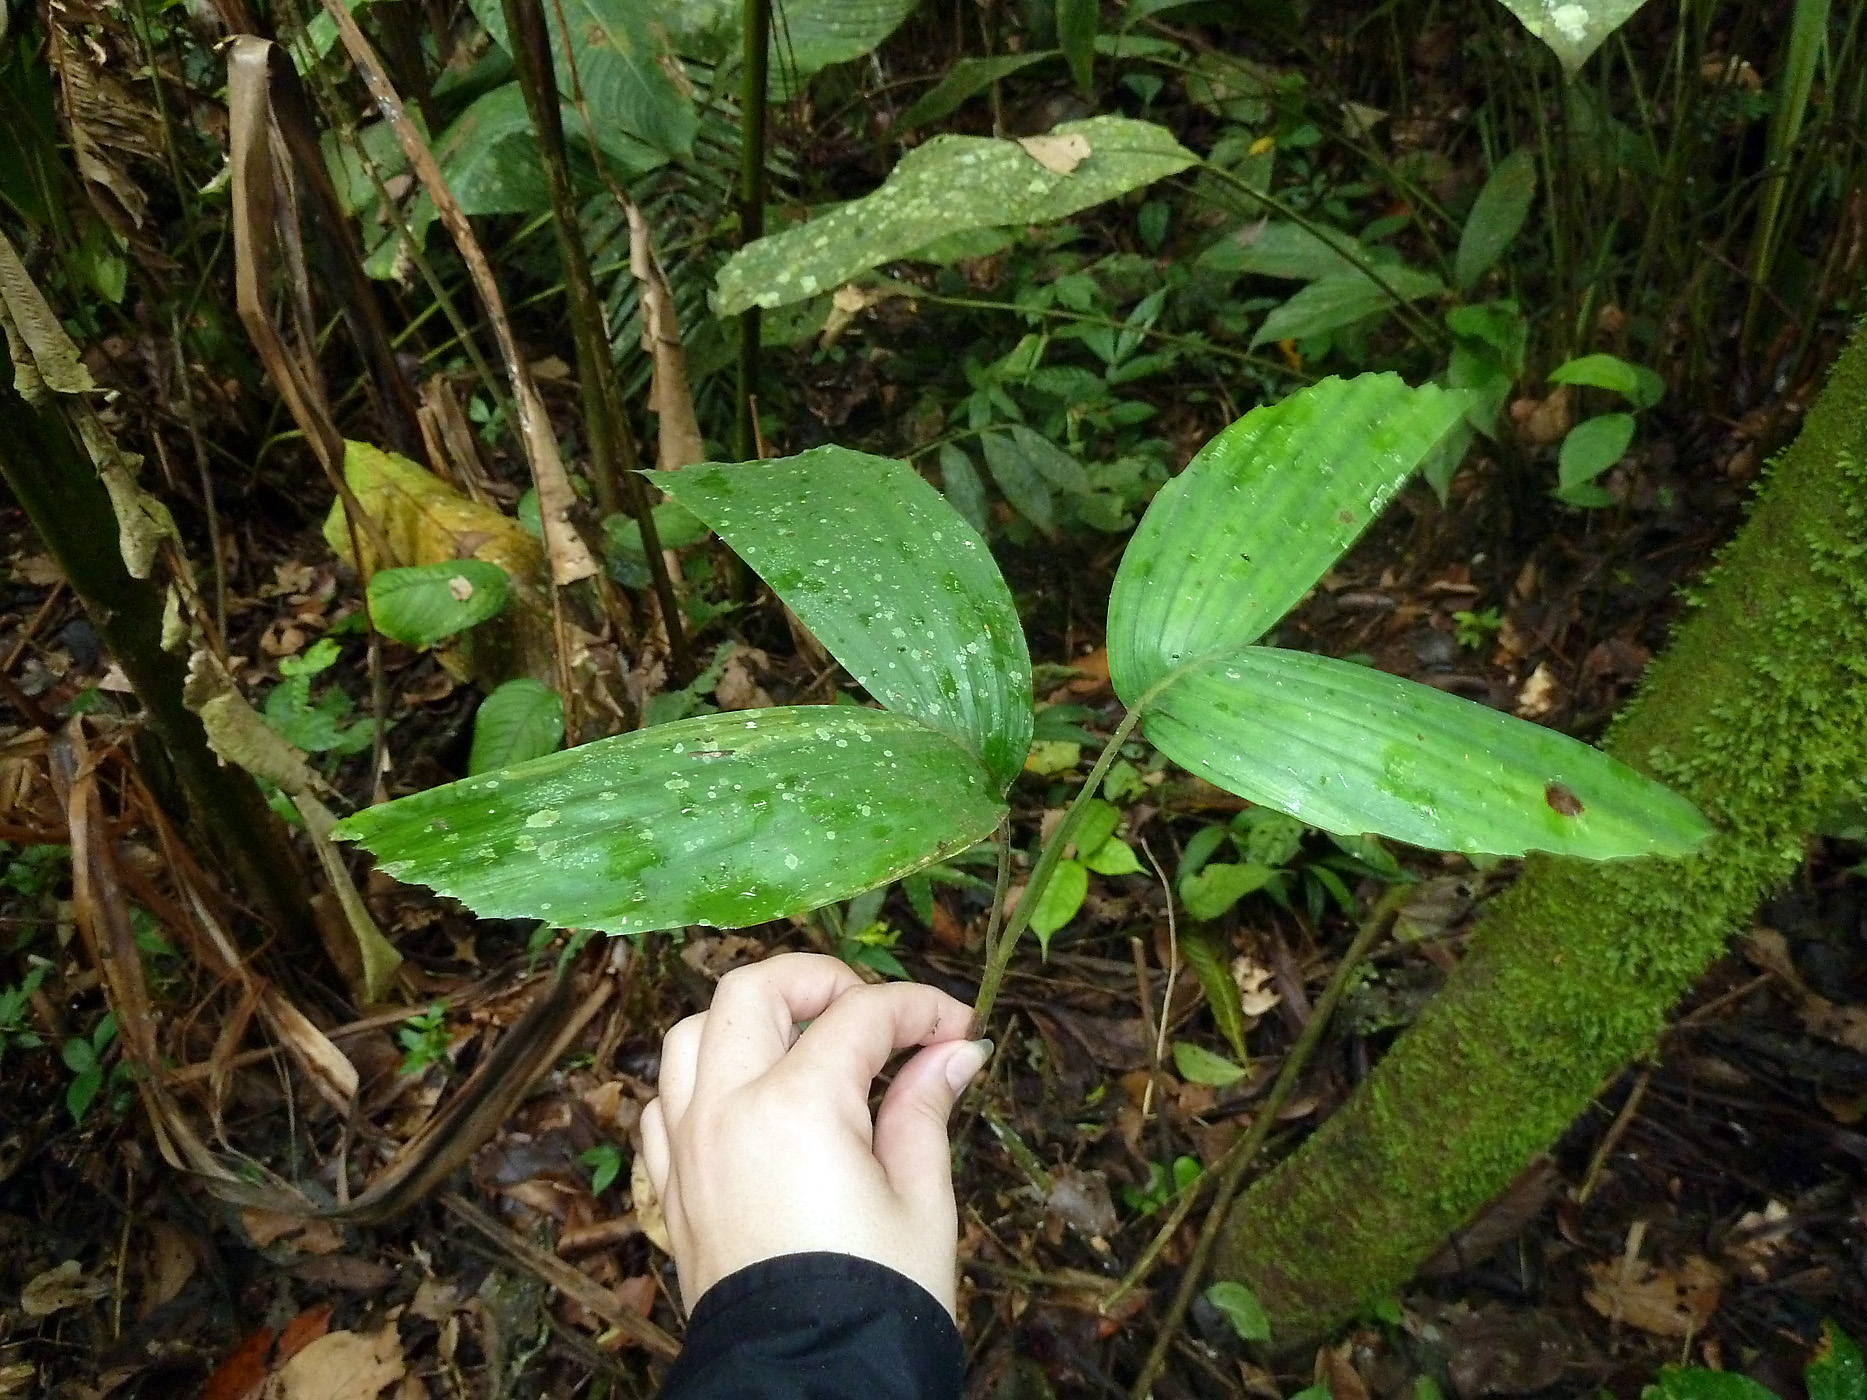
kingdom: Plantae
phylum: Tracheophyta
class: Liliopsida
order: Arecales
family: Arecaceae
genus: Socratea
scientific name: Socratea exorrhiza
